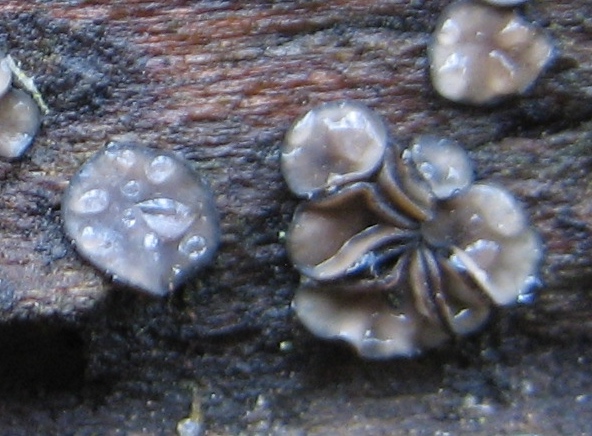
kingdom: Fungi
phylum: Ascomycota
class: Leotiomycetes
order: Helotiales
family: Mollisiaceae
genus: Mollisia
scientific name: Mollisia
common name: gråskive
